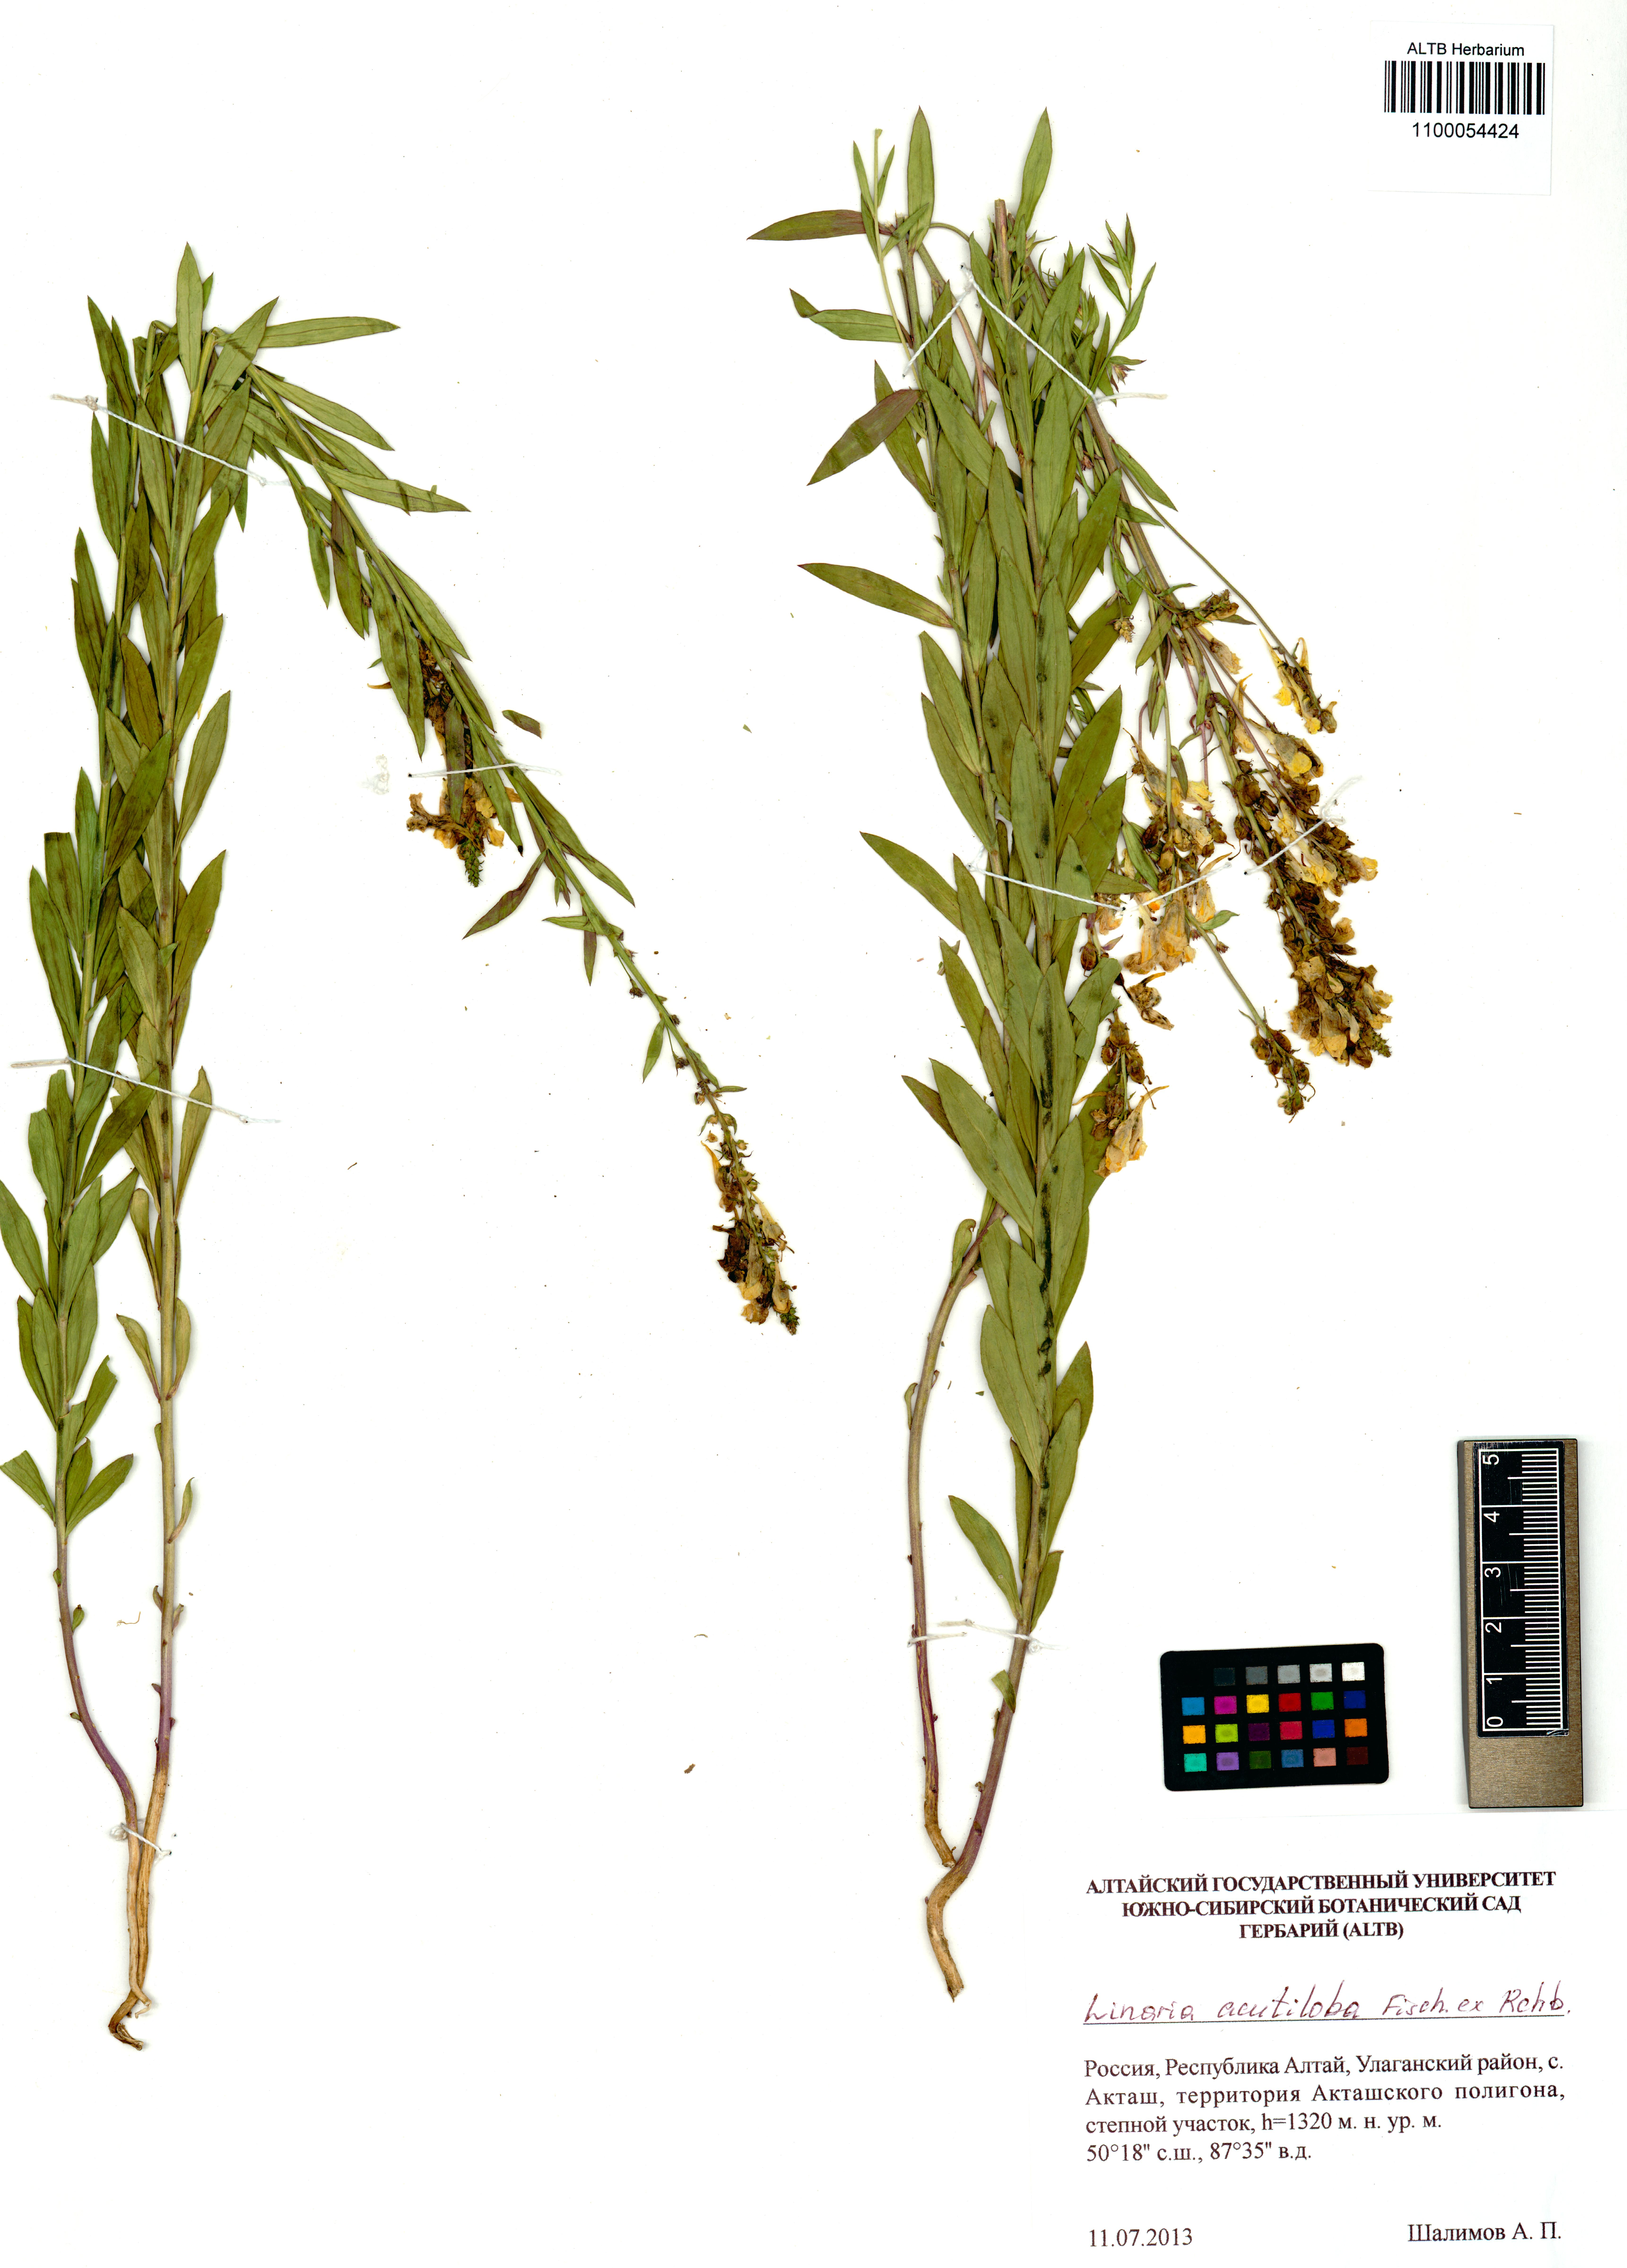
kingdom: Plantae
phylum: Tracheophyta
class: Magnoliopsida
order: Lamiales
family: Plantaginaceae
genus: Linaria
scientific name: Linaria acutiloba
